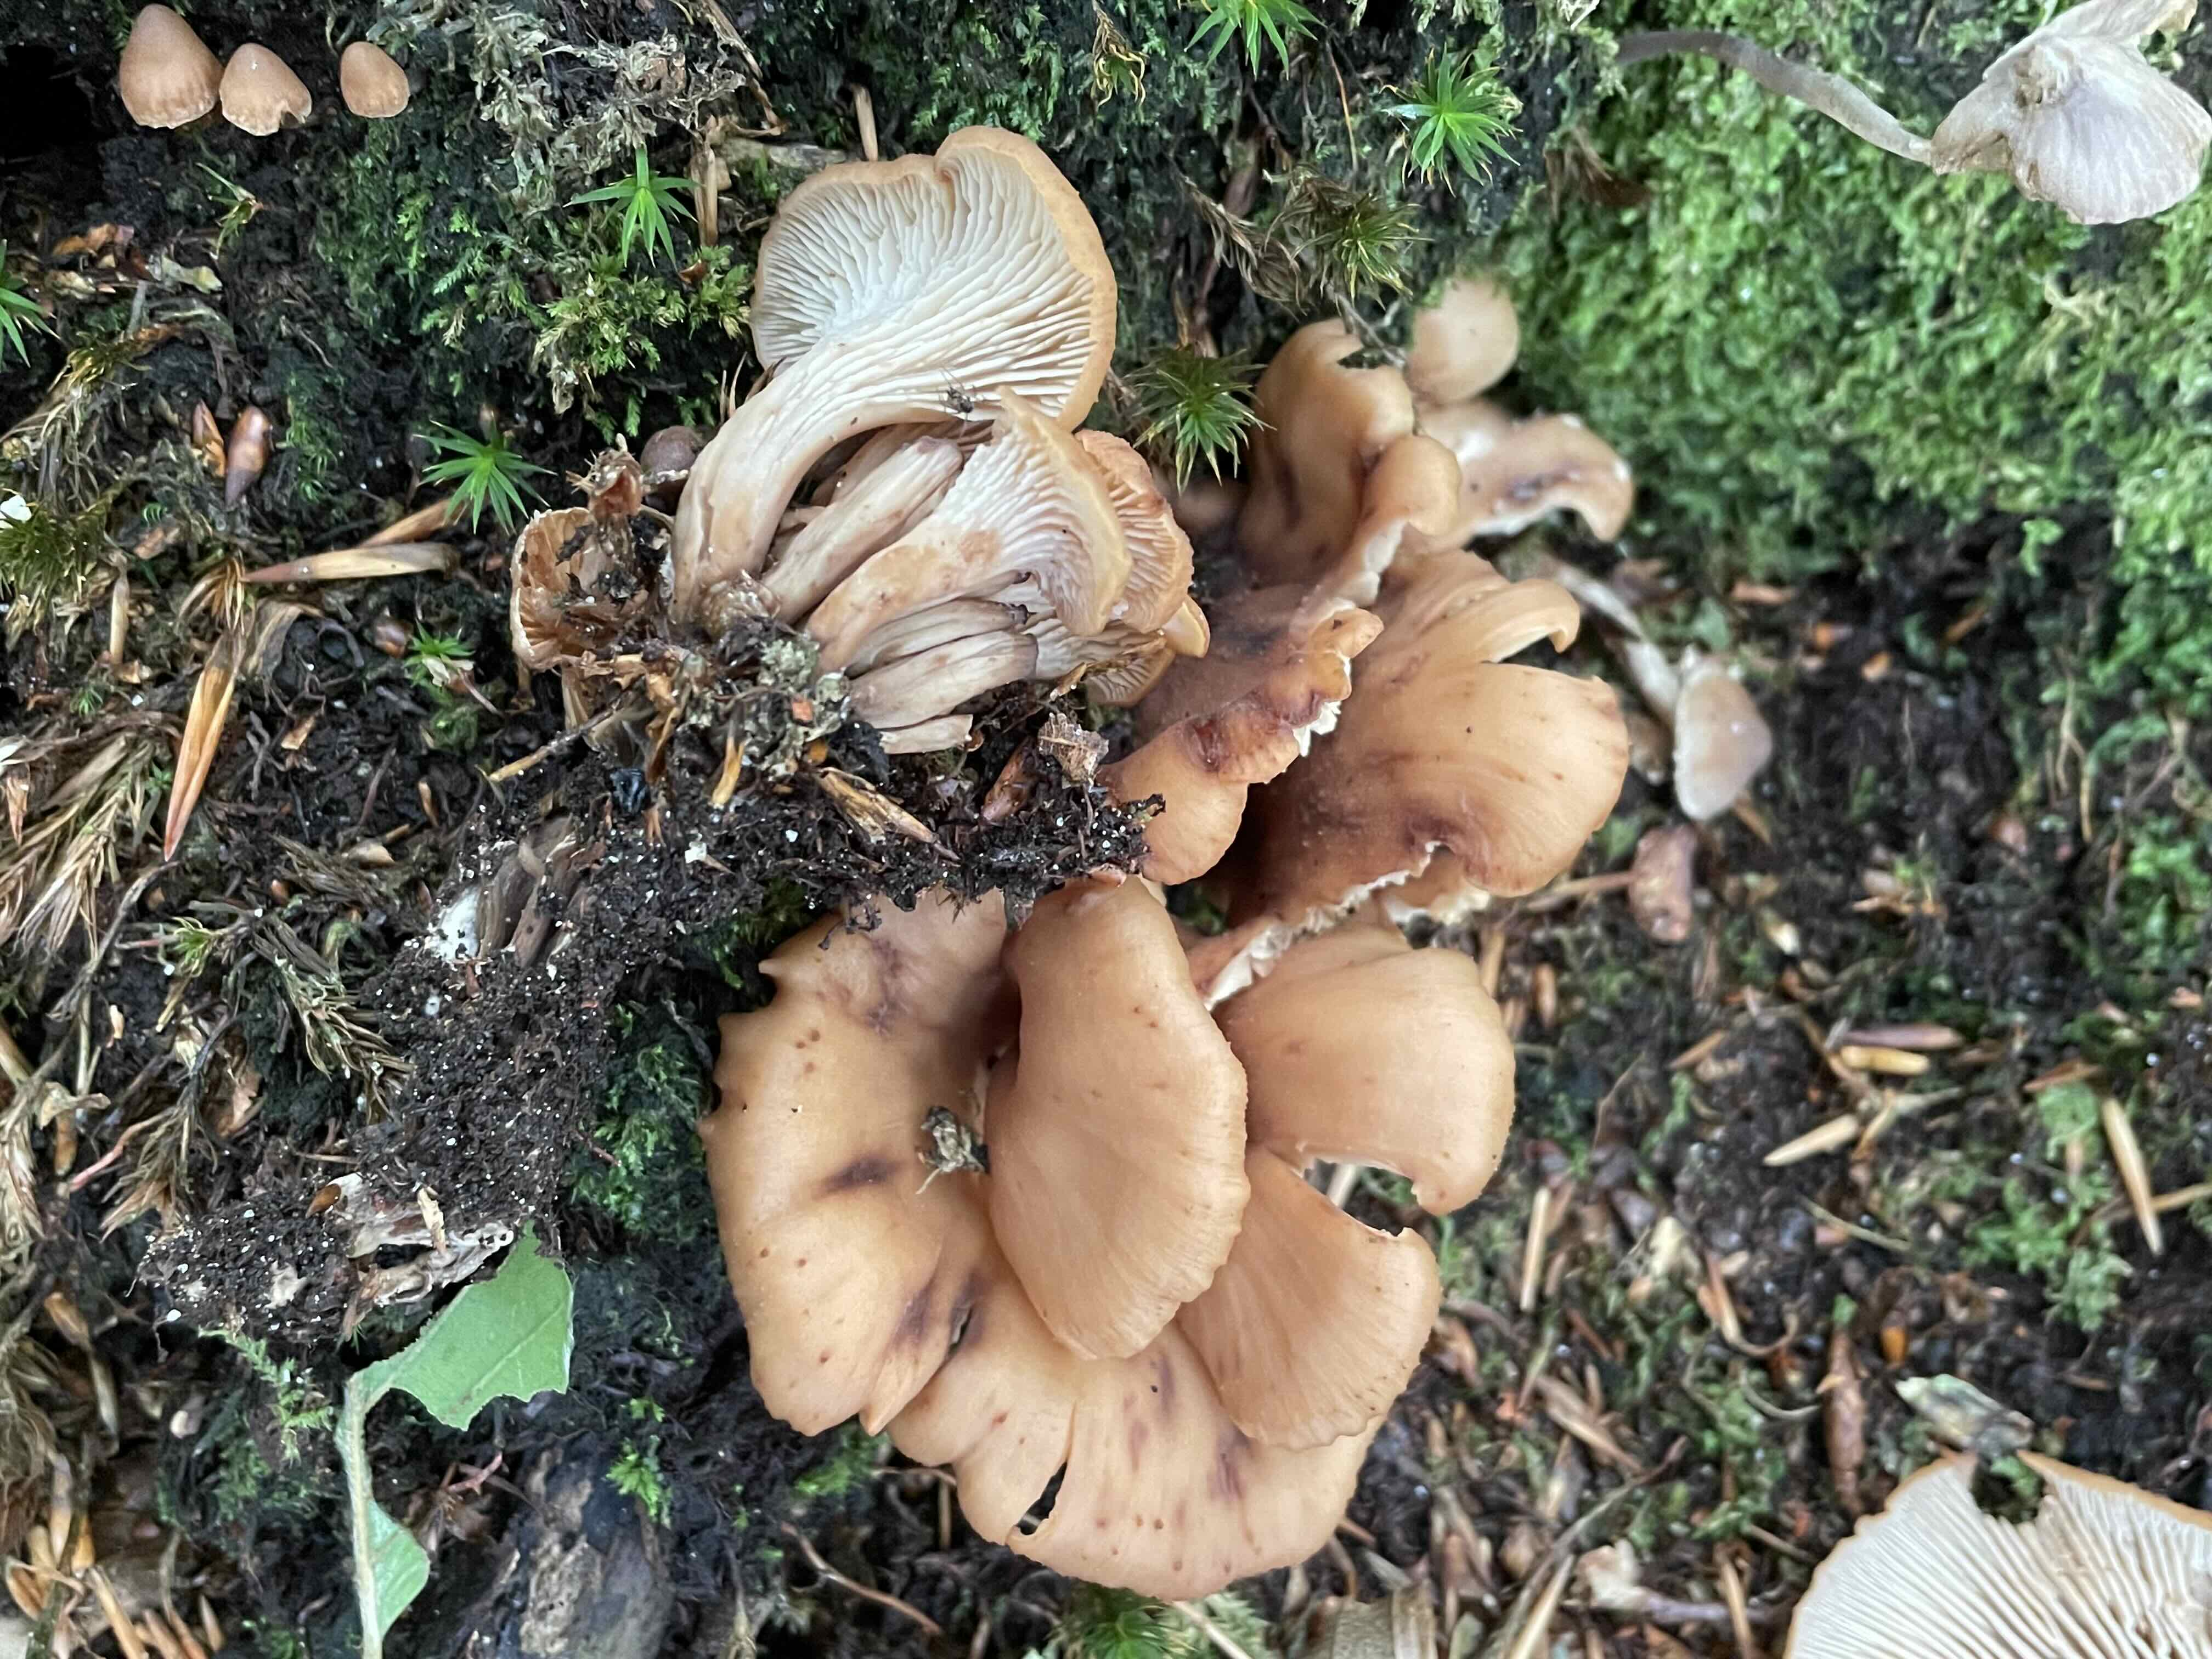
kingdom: Fungi
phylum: Basidiomycota
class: Agaricomycetes
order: Russulales
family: Auriscalpiaceae
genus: Lentinellus
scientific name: Lentinellus cochleatus
